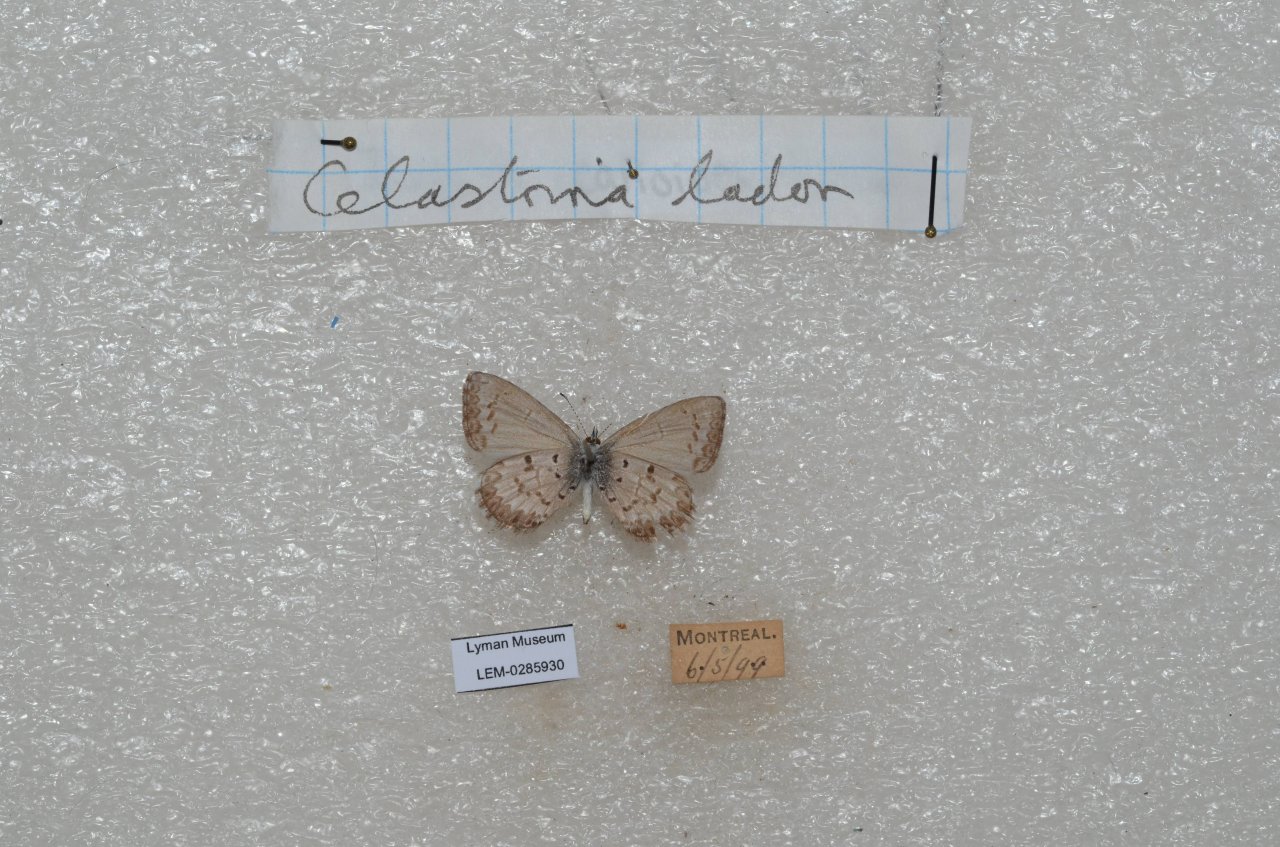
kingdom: Animalia
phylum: Arthropoda
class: Insecta
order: Lepidoptera
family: Lycaenidae
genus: Celastrina
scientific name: Celastrina lucia
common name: Northern Spring Azure
